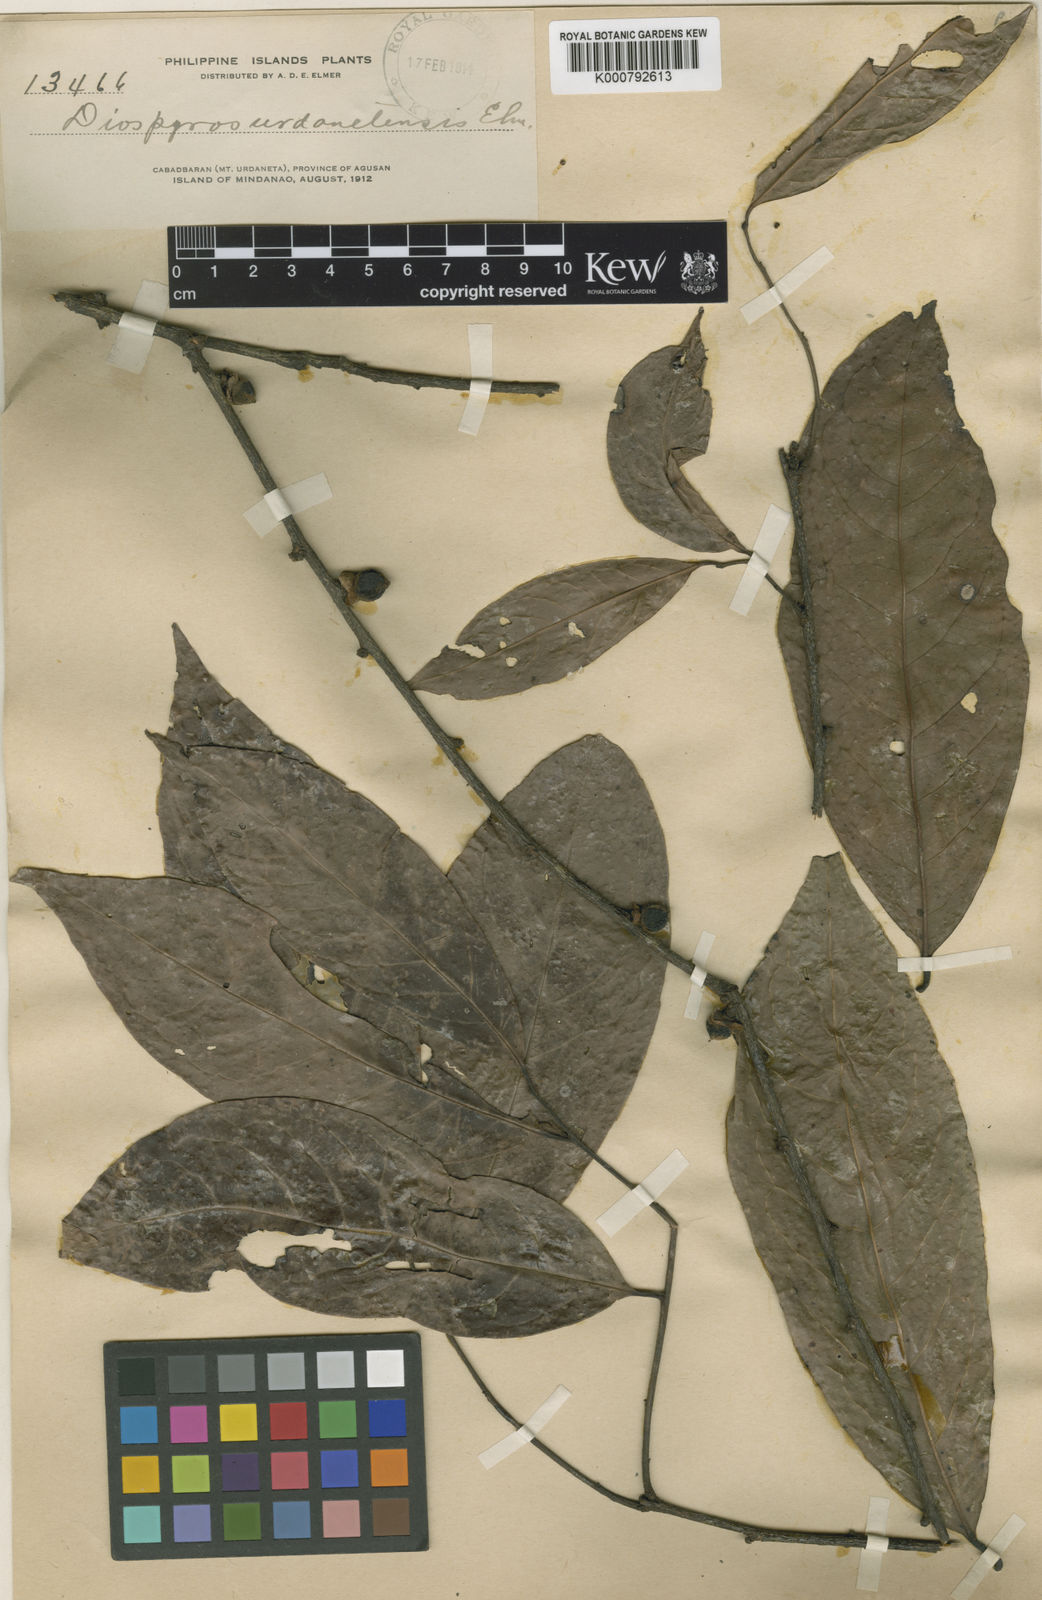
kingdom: Plantae
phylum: Tracheophyta
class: Magnoliopsida
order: Ericales
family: Ebenaceae
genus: Diospyros
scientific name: Diospyros cauliflora
